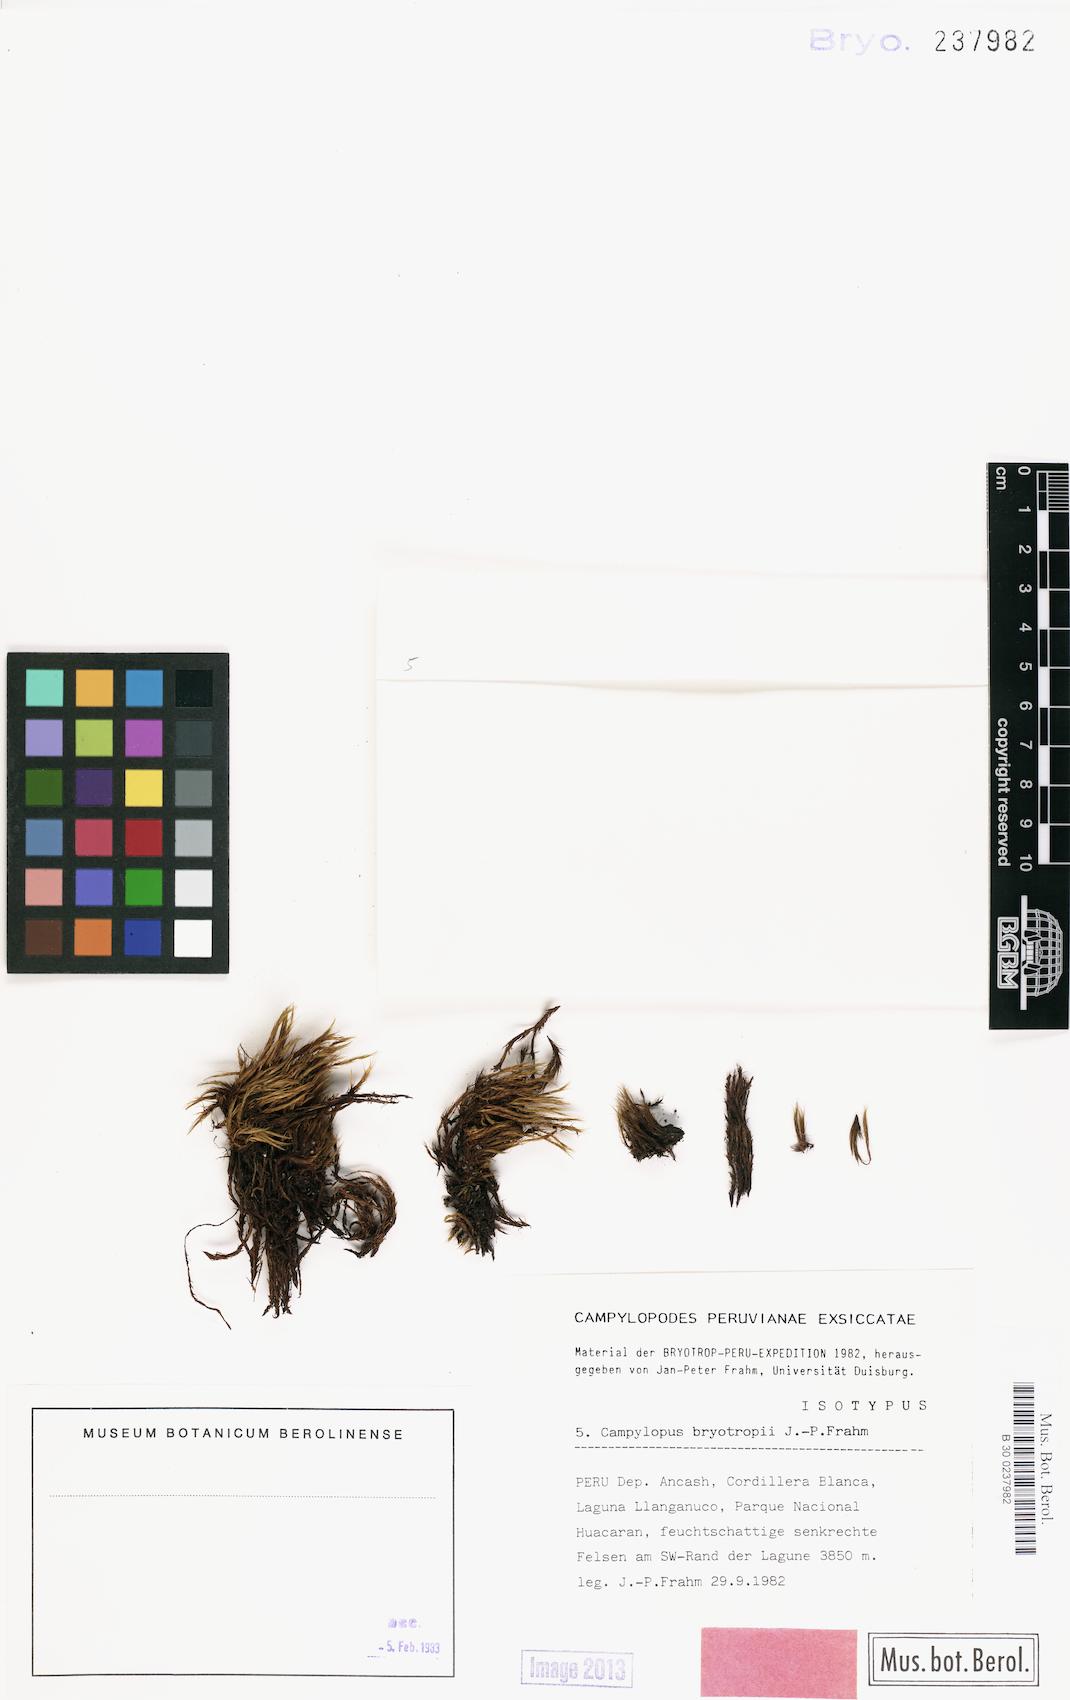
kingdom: Plantae
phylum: Bryophyta
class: Bryopsida
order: Dicranales
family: Leucobryaceae
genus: Campylopus
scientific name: Campylopus bryotropii
